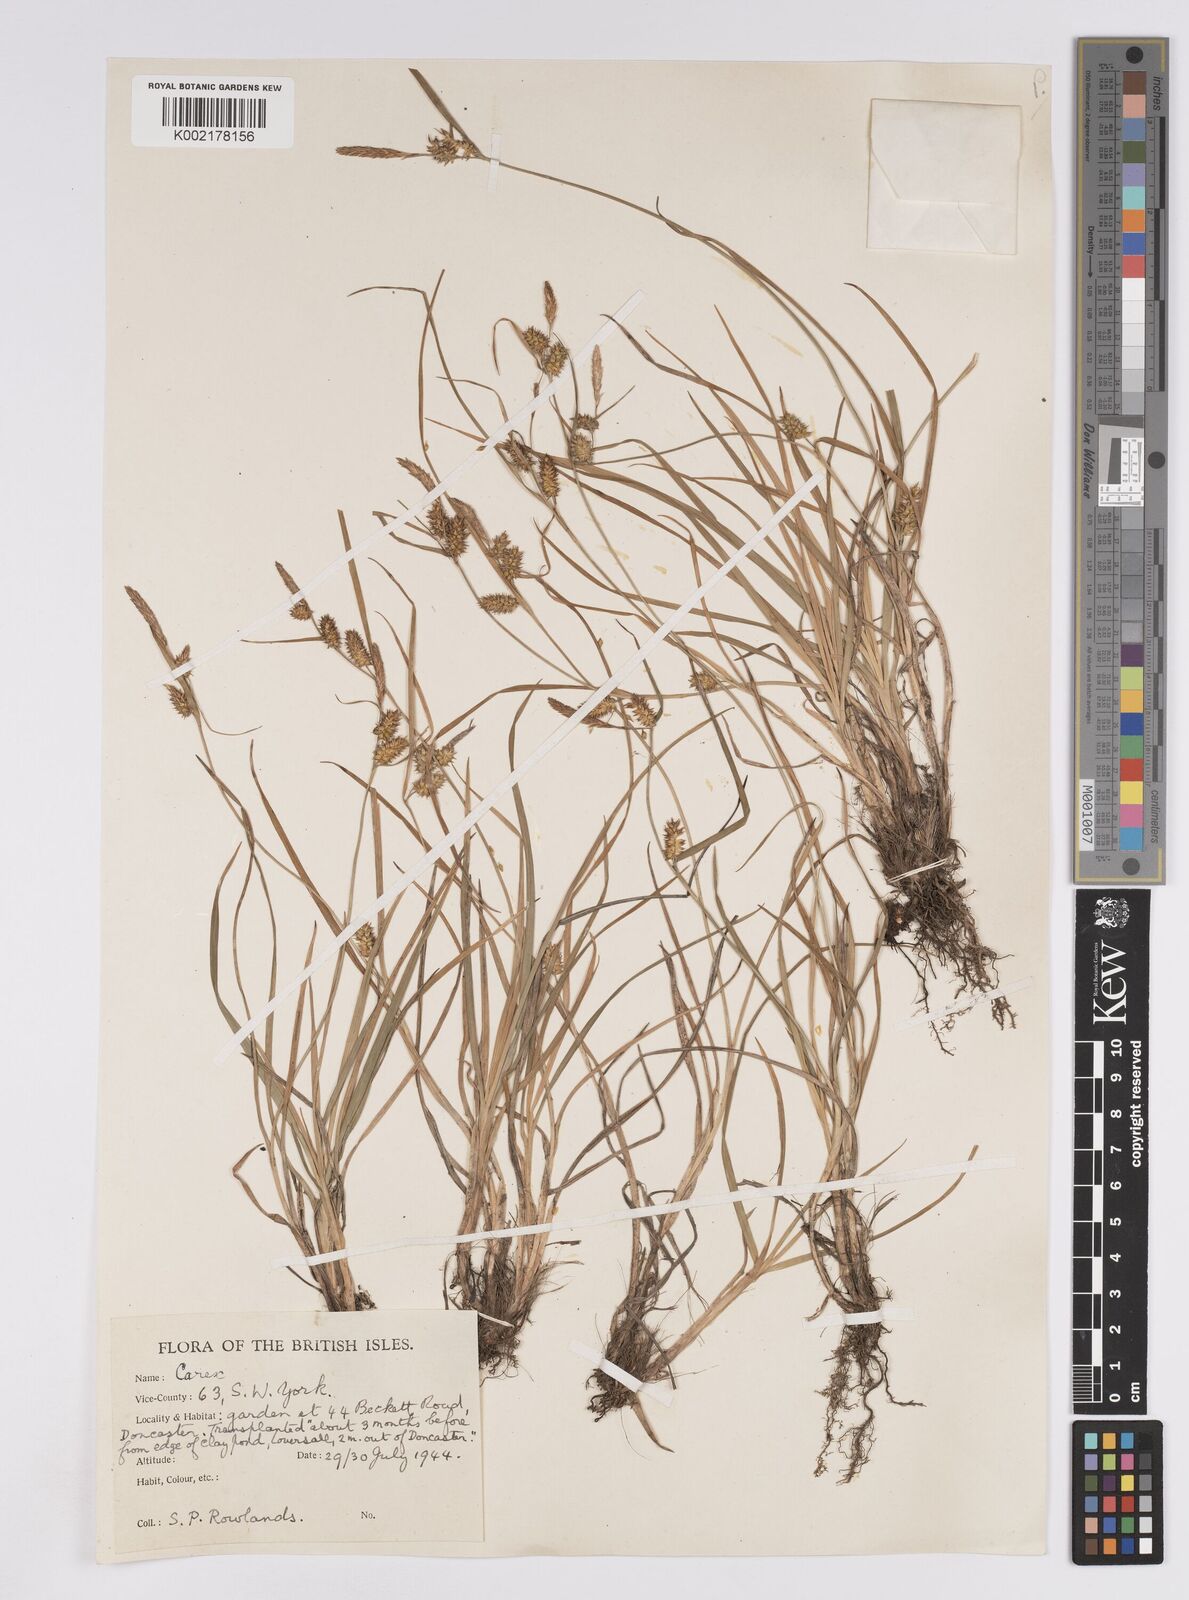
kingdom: Plantae
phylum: Tracheophyta
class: Liliopsida
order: Poales
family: Cyperaceae
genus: Carex
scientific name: Carex demissa
